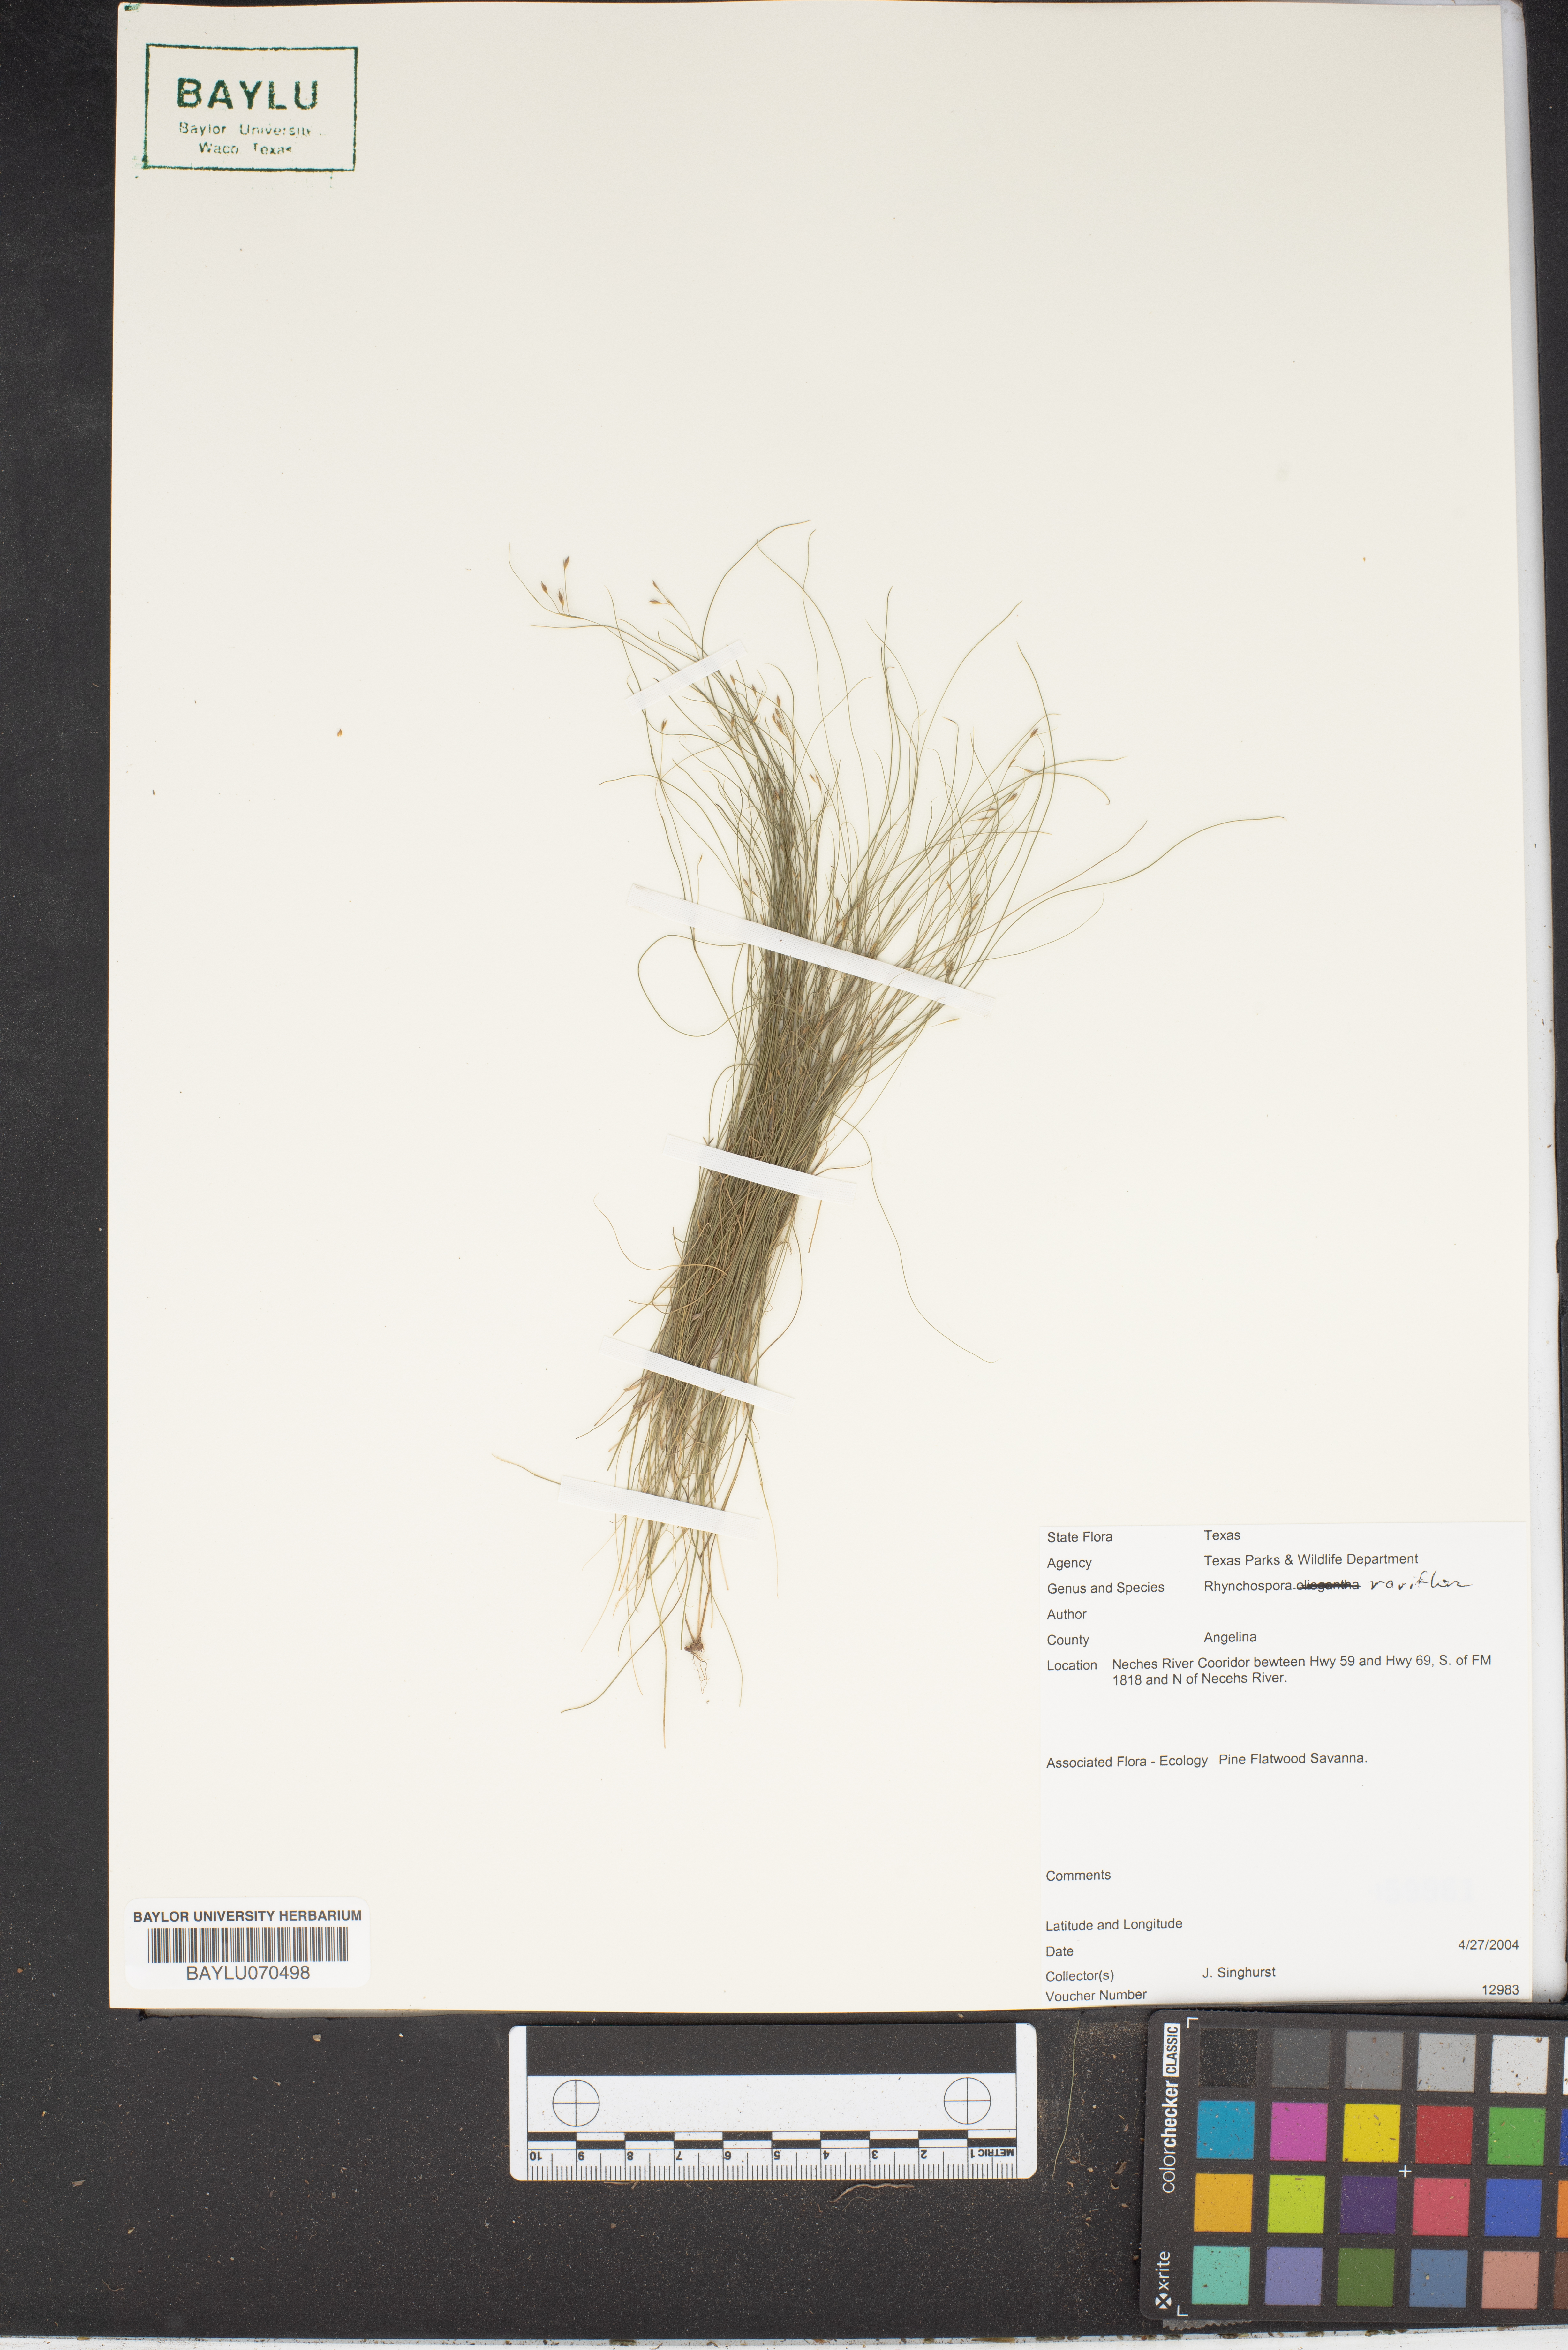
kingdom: Plantae
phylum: Tracheophyta
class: Liliopsida
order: Poales
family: Cyperaceae
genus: Rhynchospora
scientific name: Rhynchospora rariflora
